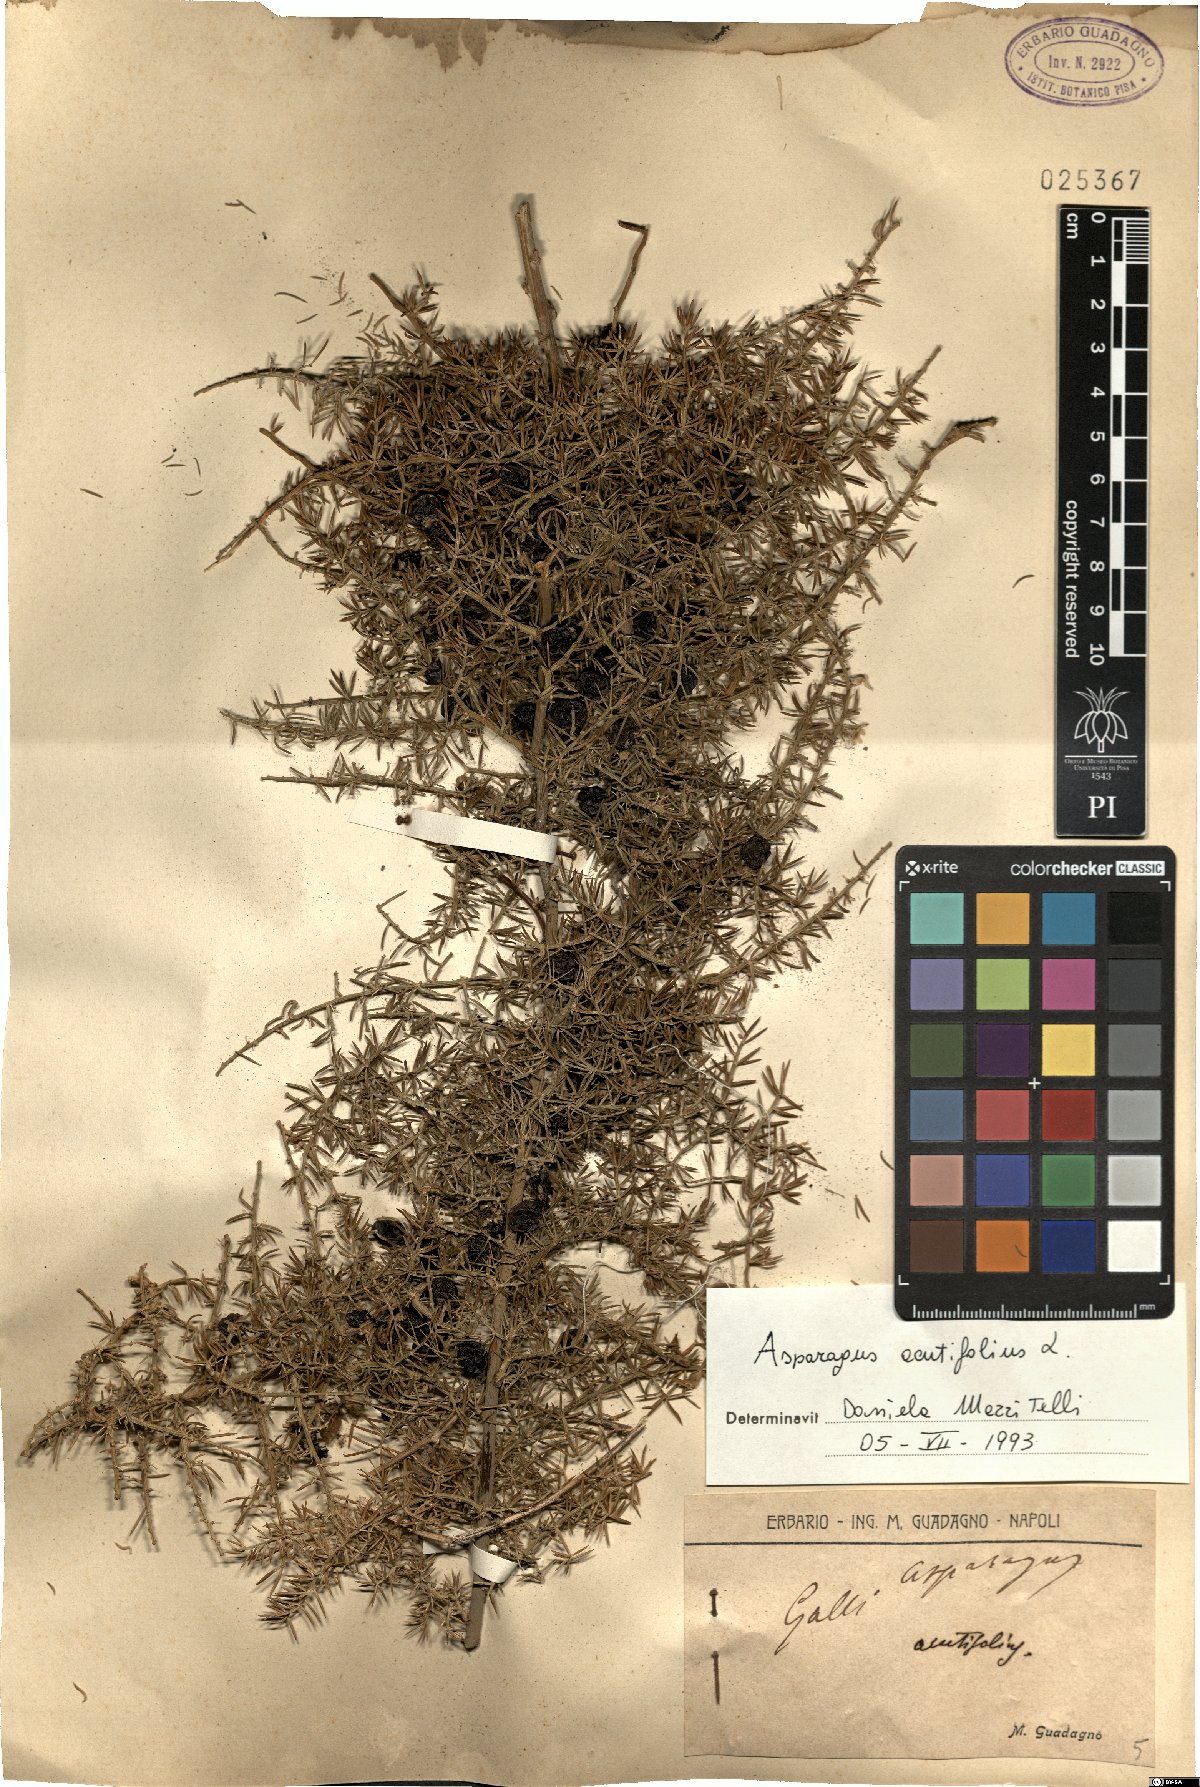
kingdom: Plantae
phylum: Tracheophyta
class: Liliopsida
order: Asparagales
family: Asparagaceae
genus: Asparagus
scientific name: Asparagus acutifolius
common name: Wild asparagus
